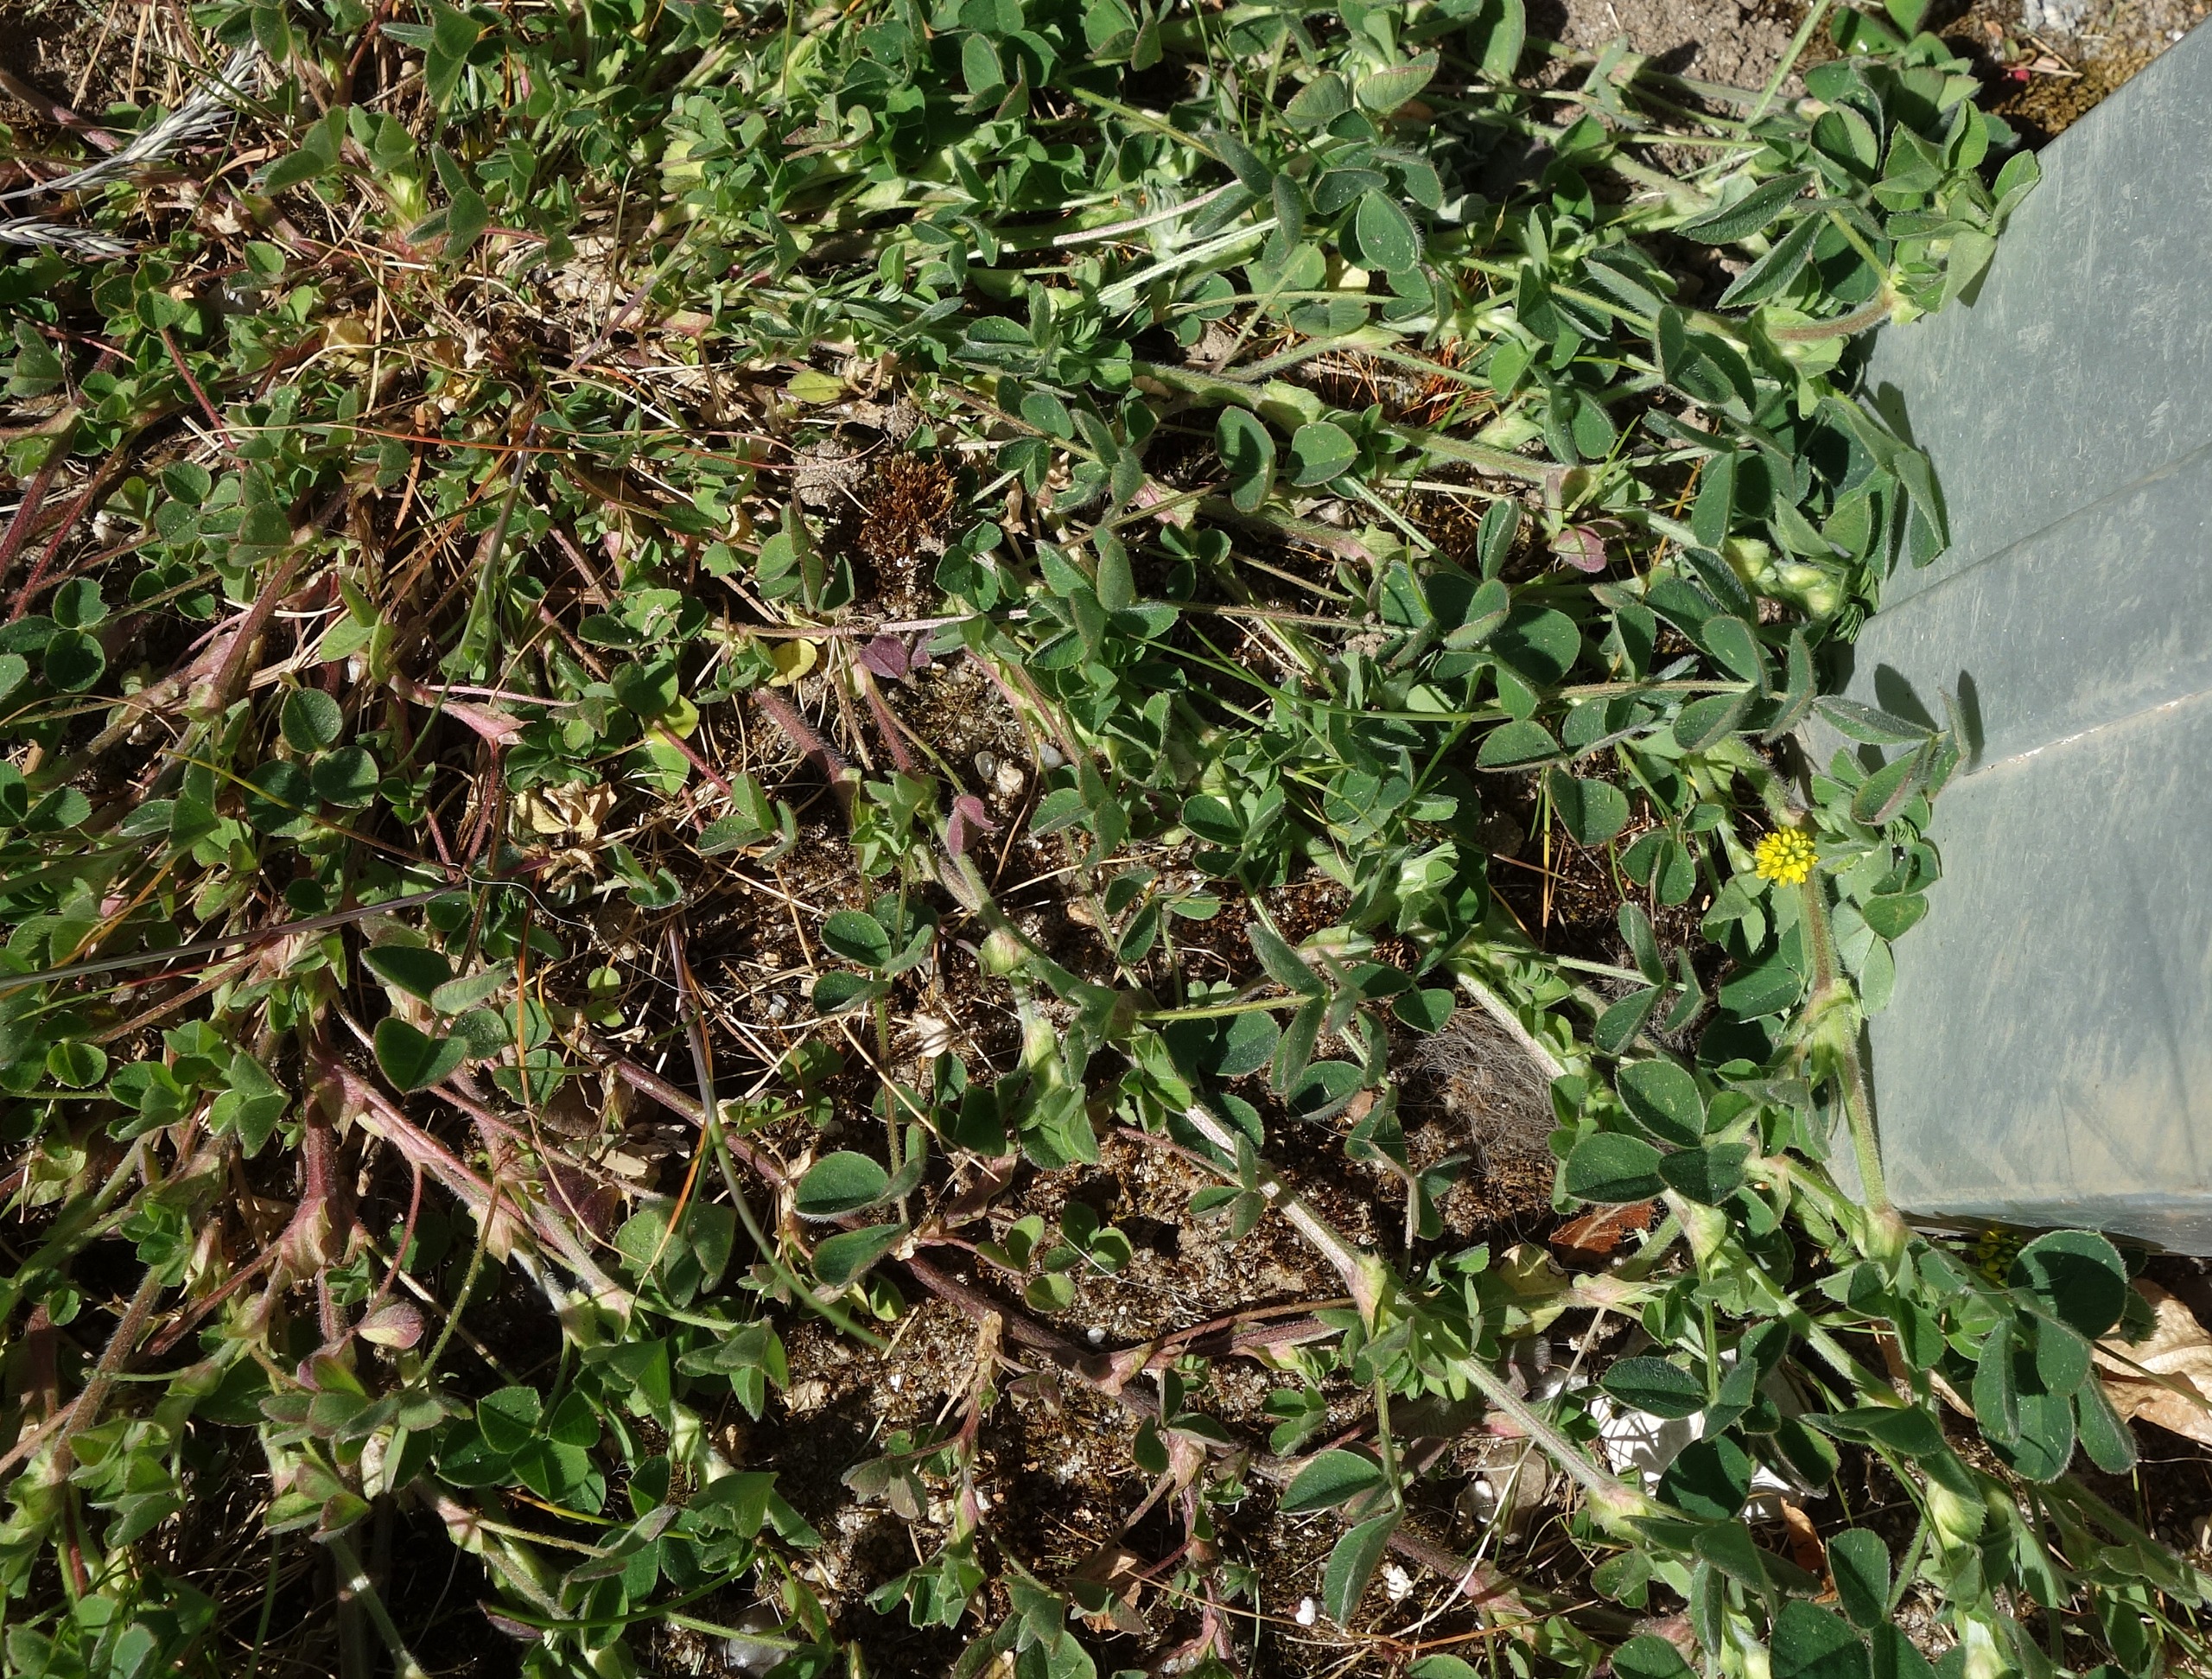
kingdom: Plantae
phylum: Tracheophyta
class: Magnoliopsida
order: Fabales
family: Fabaceae
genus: Medicago
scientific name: Medicago lupulina
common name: Humle-sneglebælg
